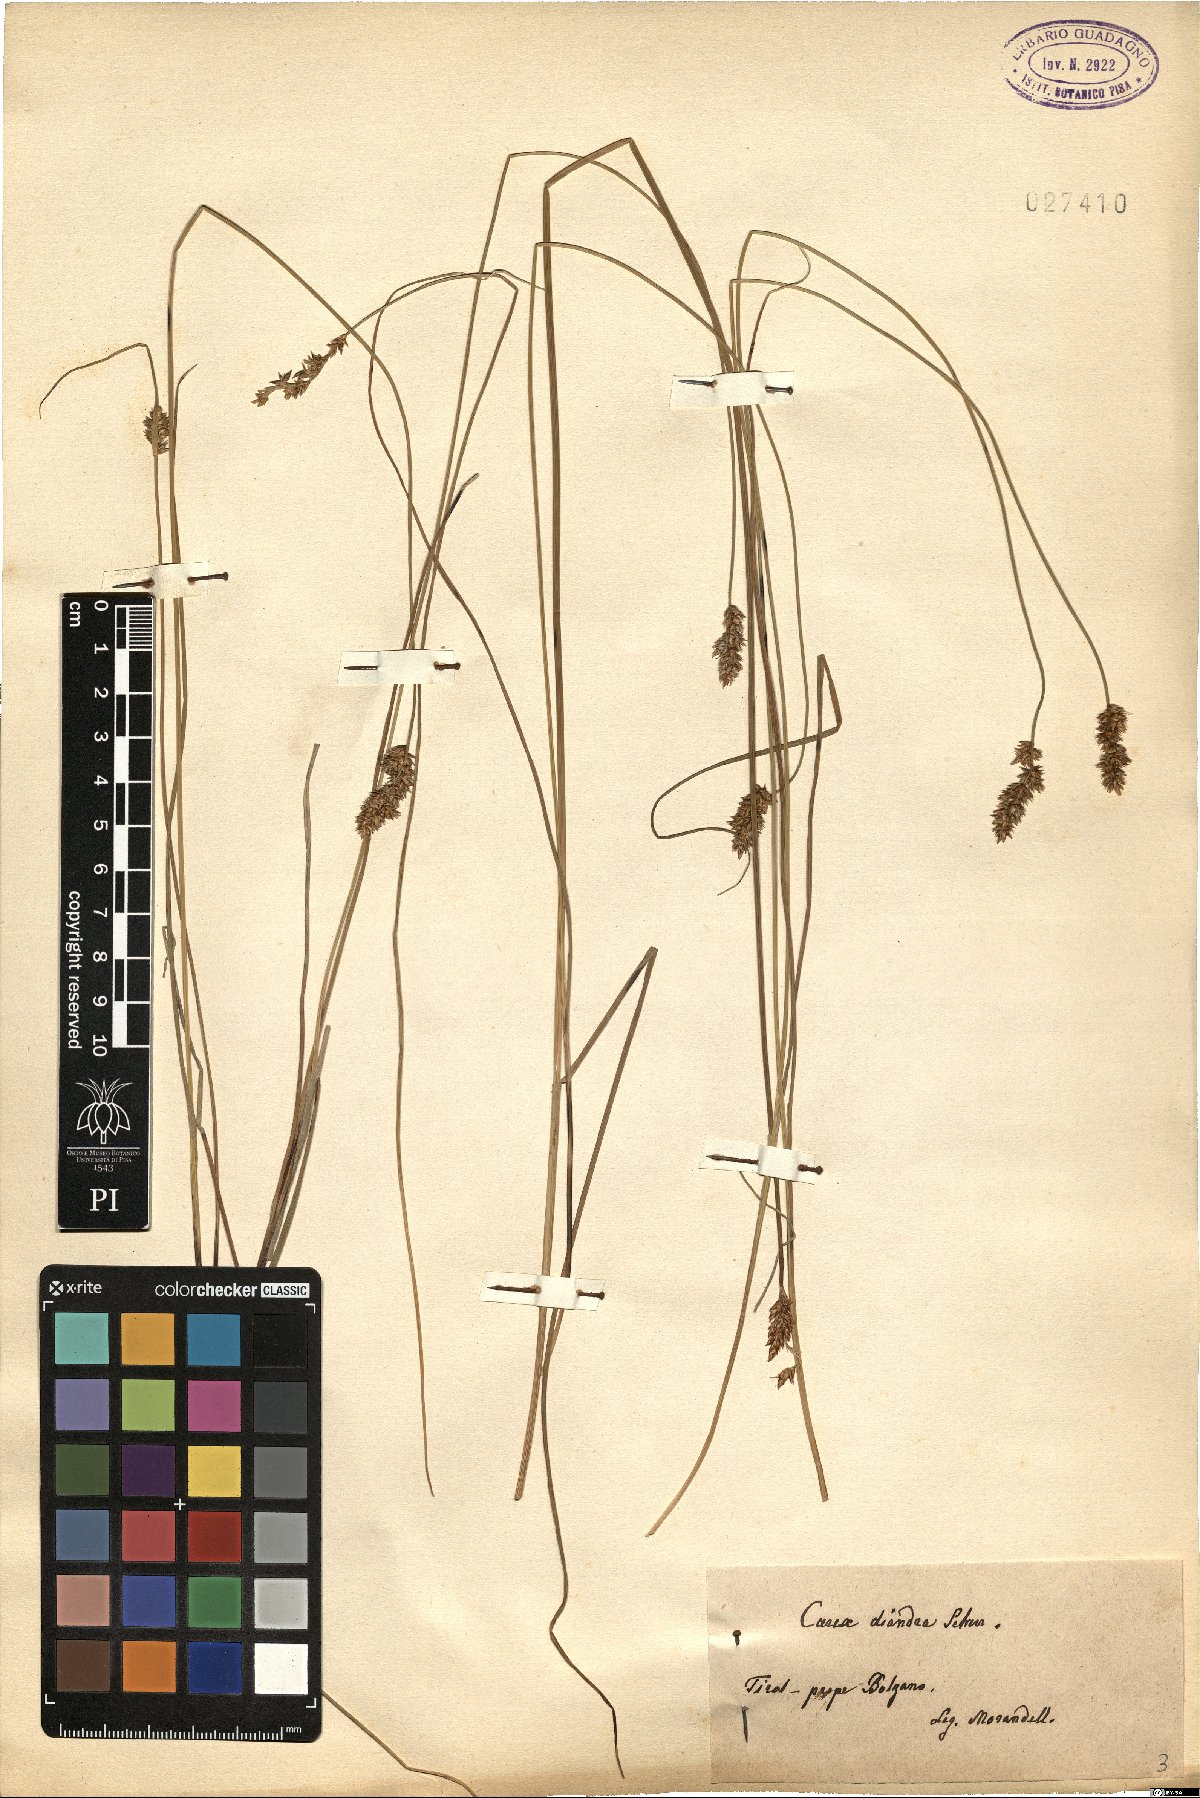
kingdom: Plantae
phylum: Tracheophyta
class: Liliopsida
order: Poales
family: Cyperaceae
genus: Carex
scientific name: Carex diandra
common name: Lesser tussock-sedge
